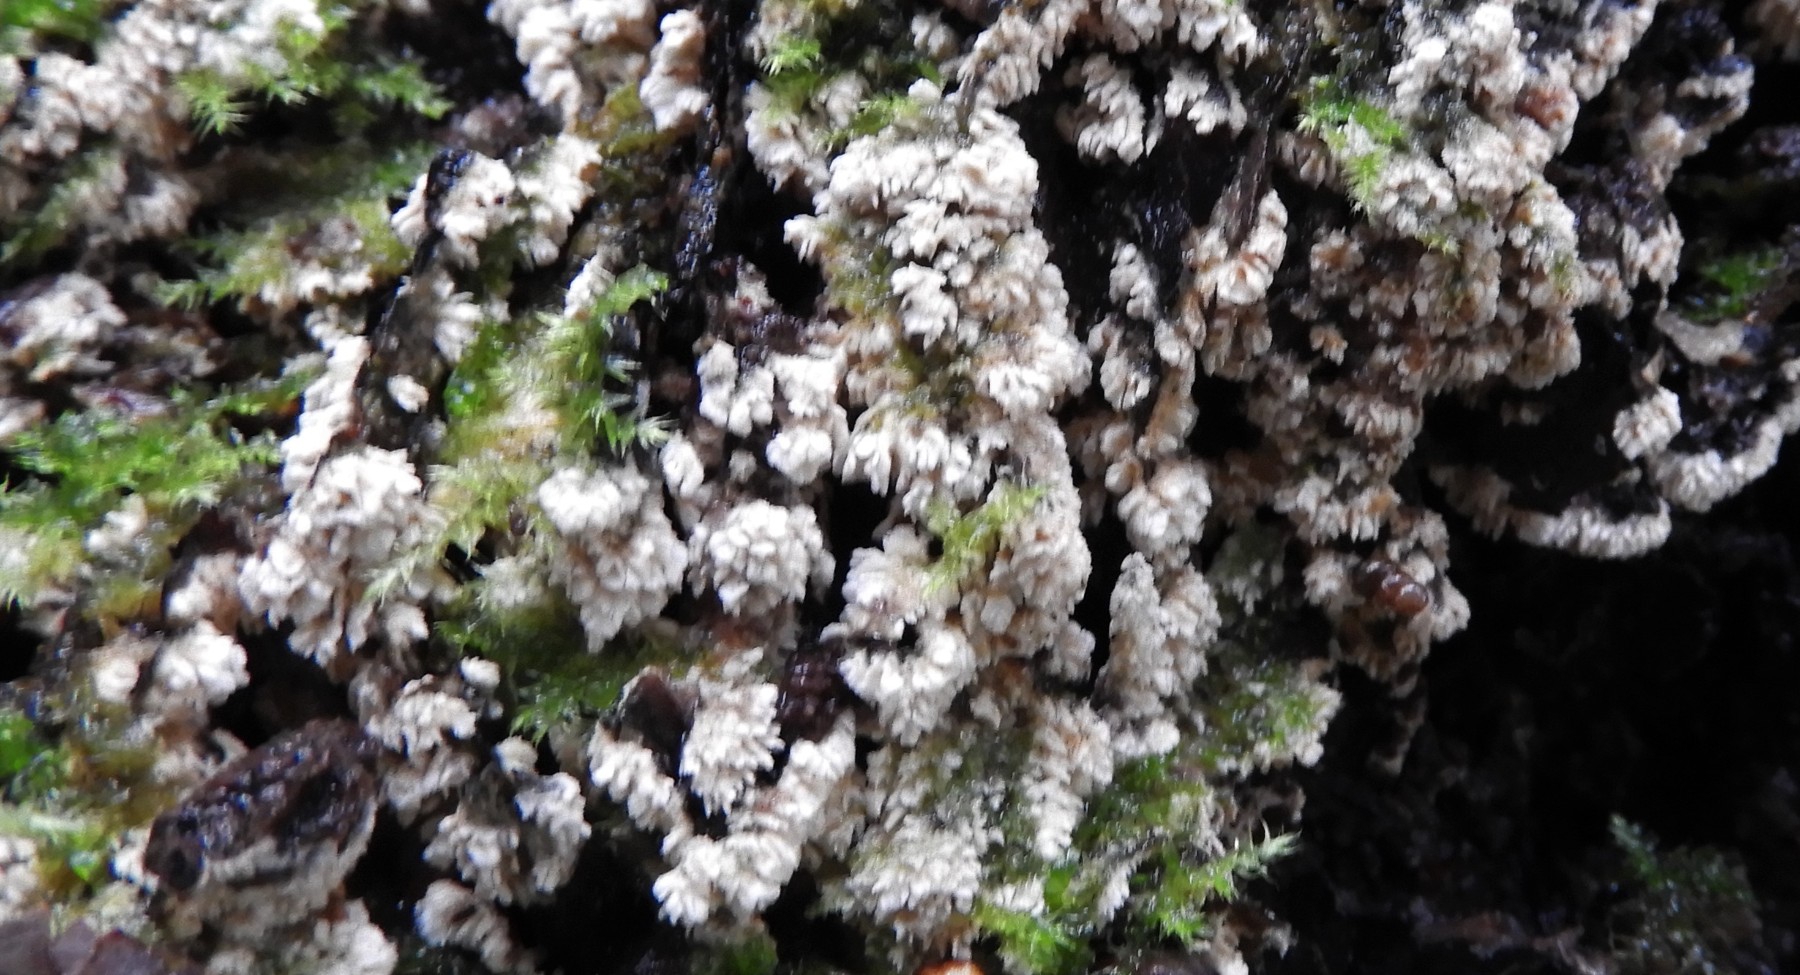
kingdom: Fungi
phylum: Basidiomycota
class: Agaricomycetes
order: Hymenochaetales
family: Schizoporaceae
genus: Schizopora
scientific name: Schizopora paradoxa
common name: hvid tandsvamp
